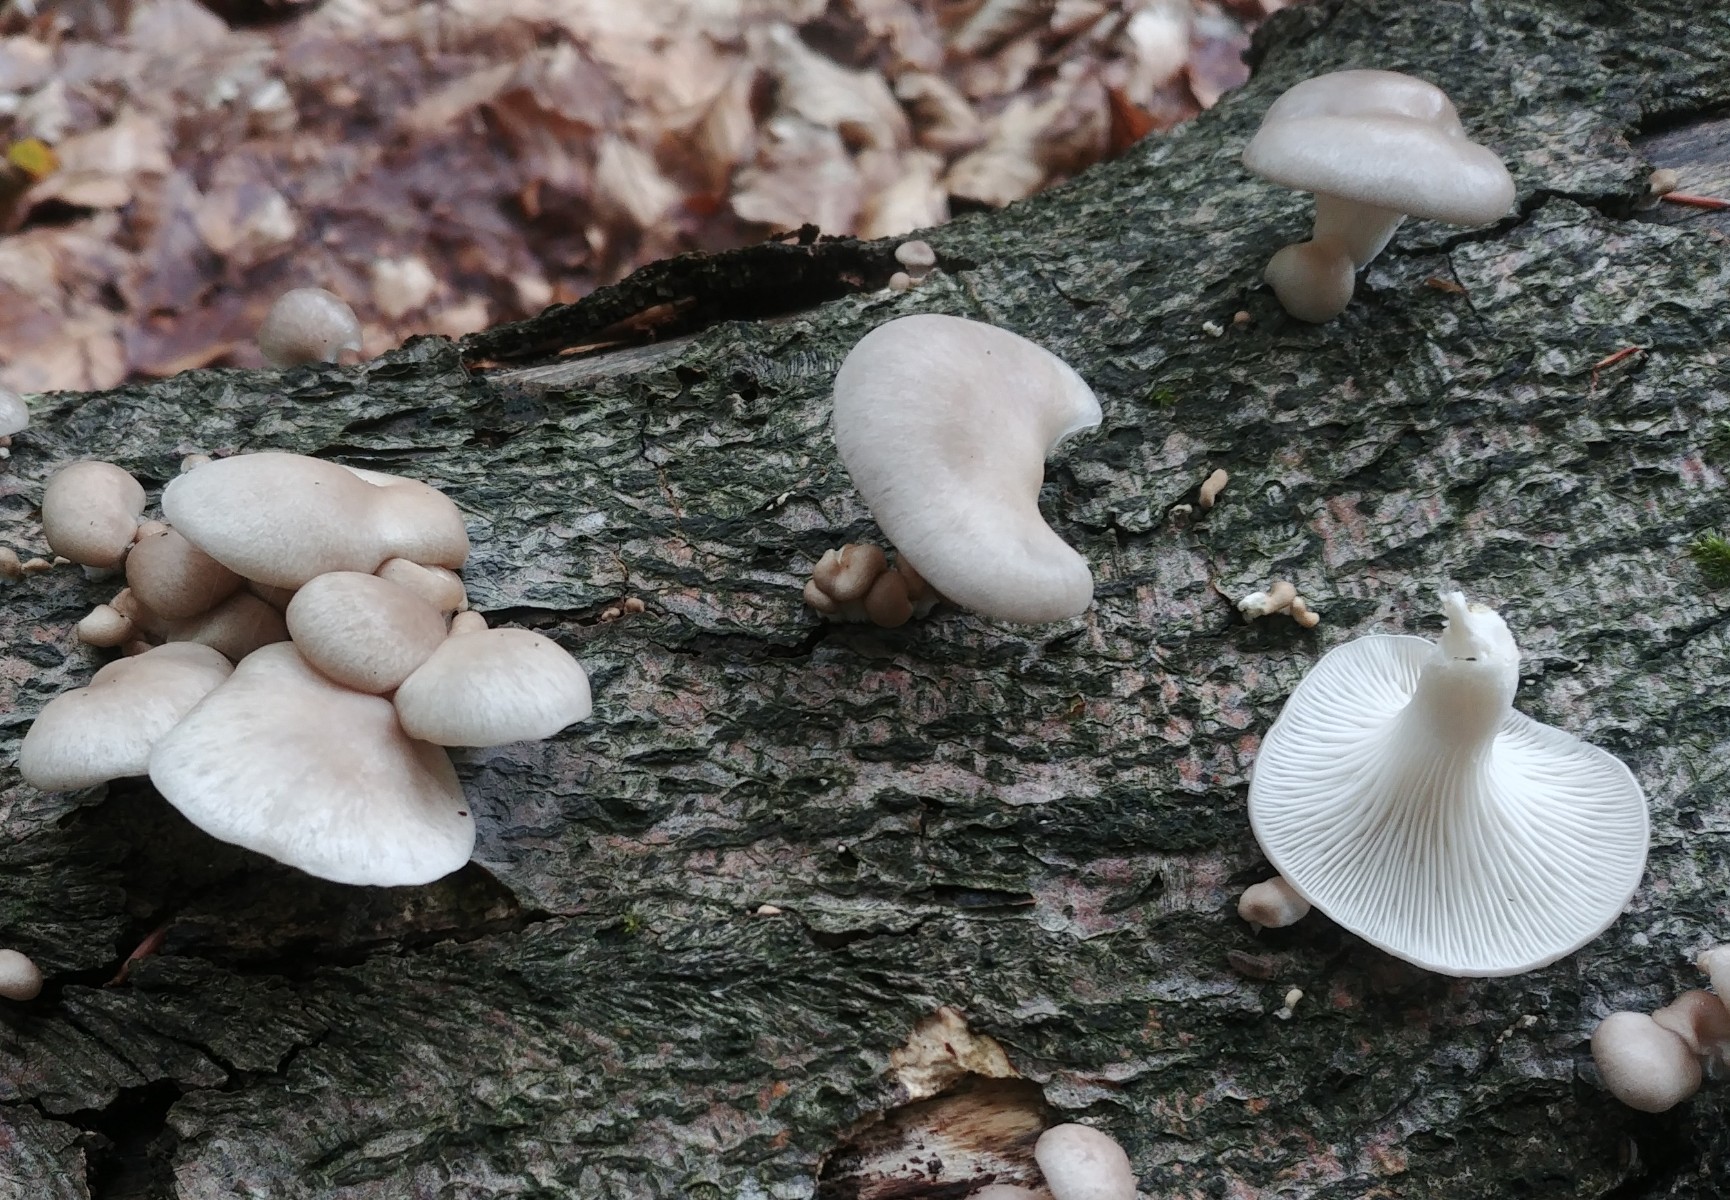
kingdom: Fungi
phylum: Basidiomycota
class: Agaricomycetes
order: Agaricales
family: Pleurotaceae
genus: Pleurotus
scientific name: Pleurotus pulmonarius
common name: sommer-østershat
